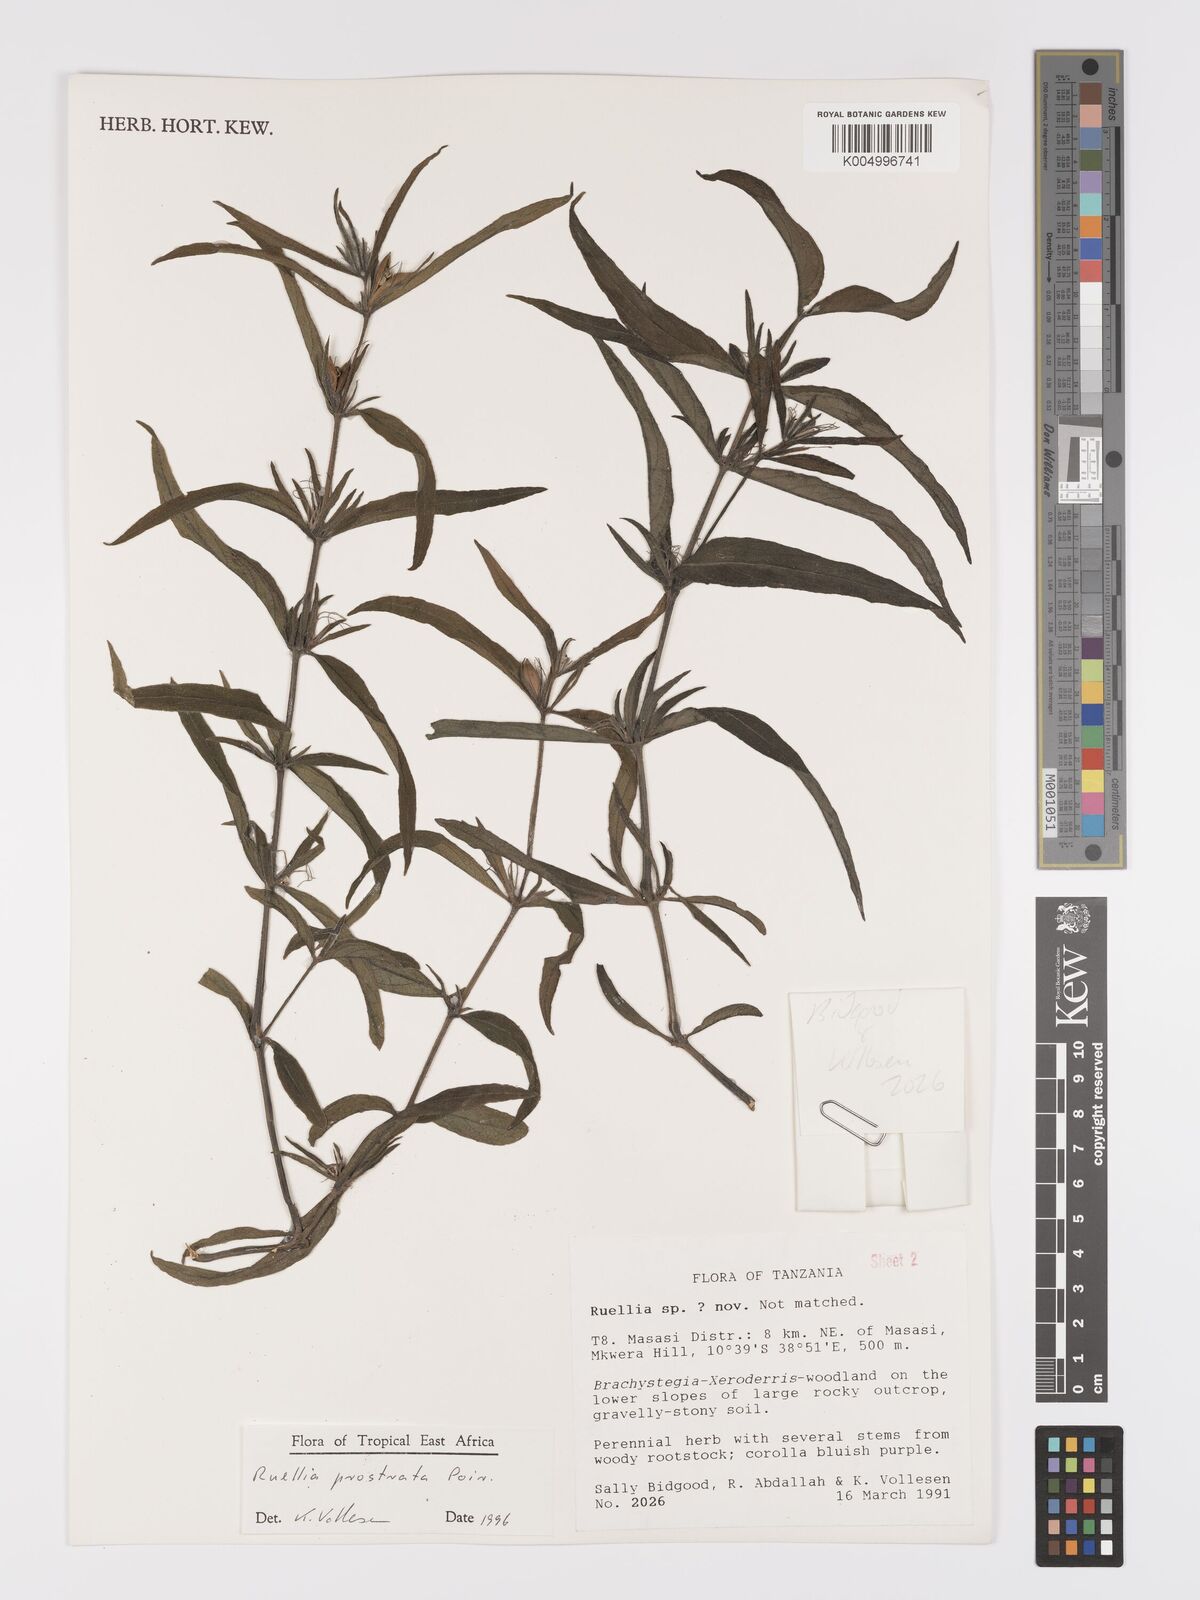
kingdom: Plantae
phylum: Tracheophyta
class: Magnoliopsida
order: Lamiales
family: Acanthaceae
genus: Ruellia
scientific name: Ruellia
